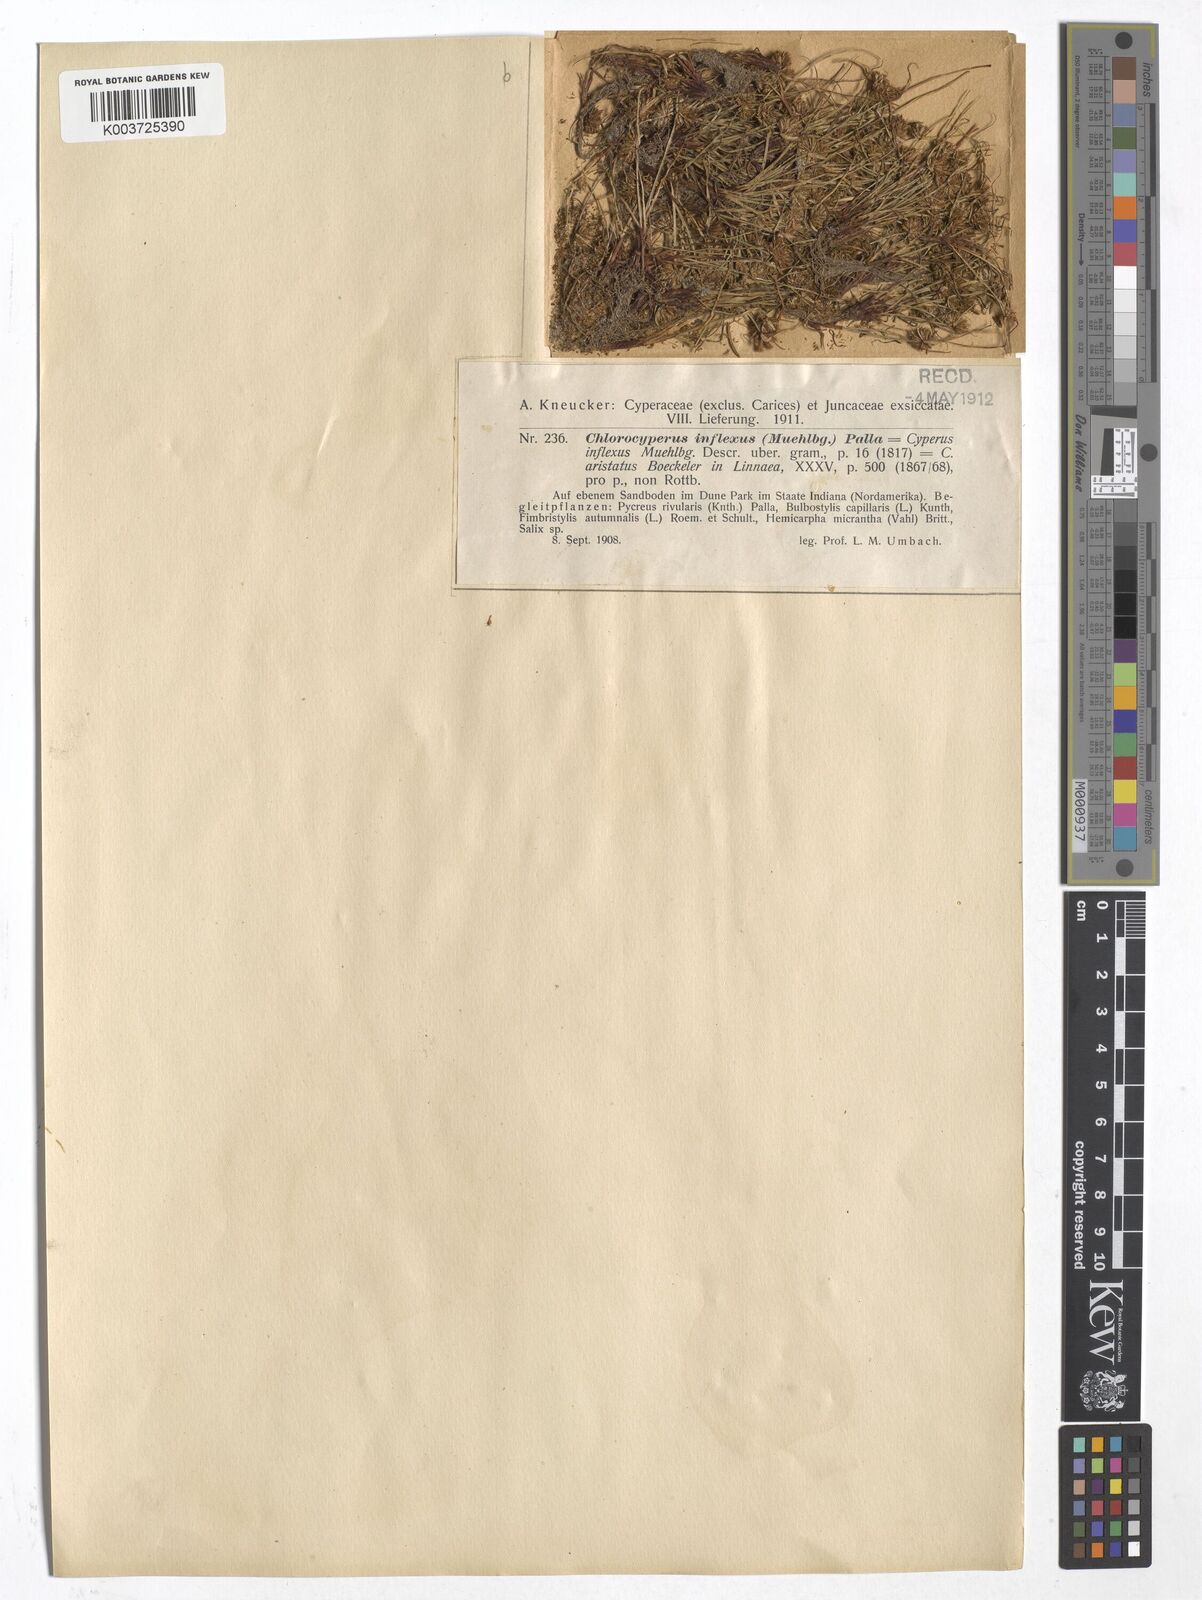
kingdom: Plantae
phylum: Tracheophyta
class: Liliopsida
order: Poales
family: Cyperaceae
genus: Cyperus
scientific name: Cyperus squarrosus
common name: Awned cyperus
